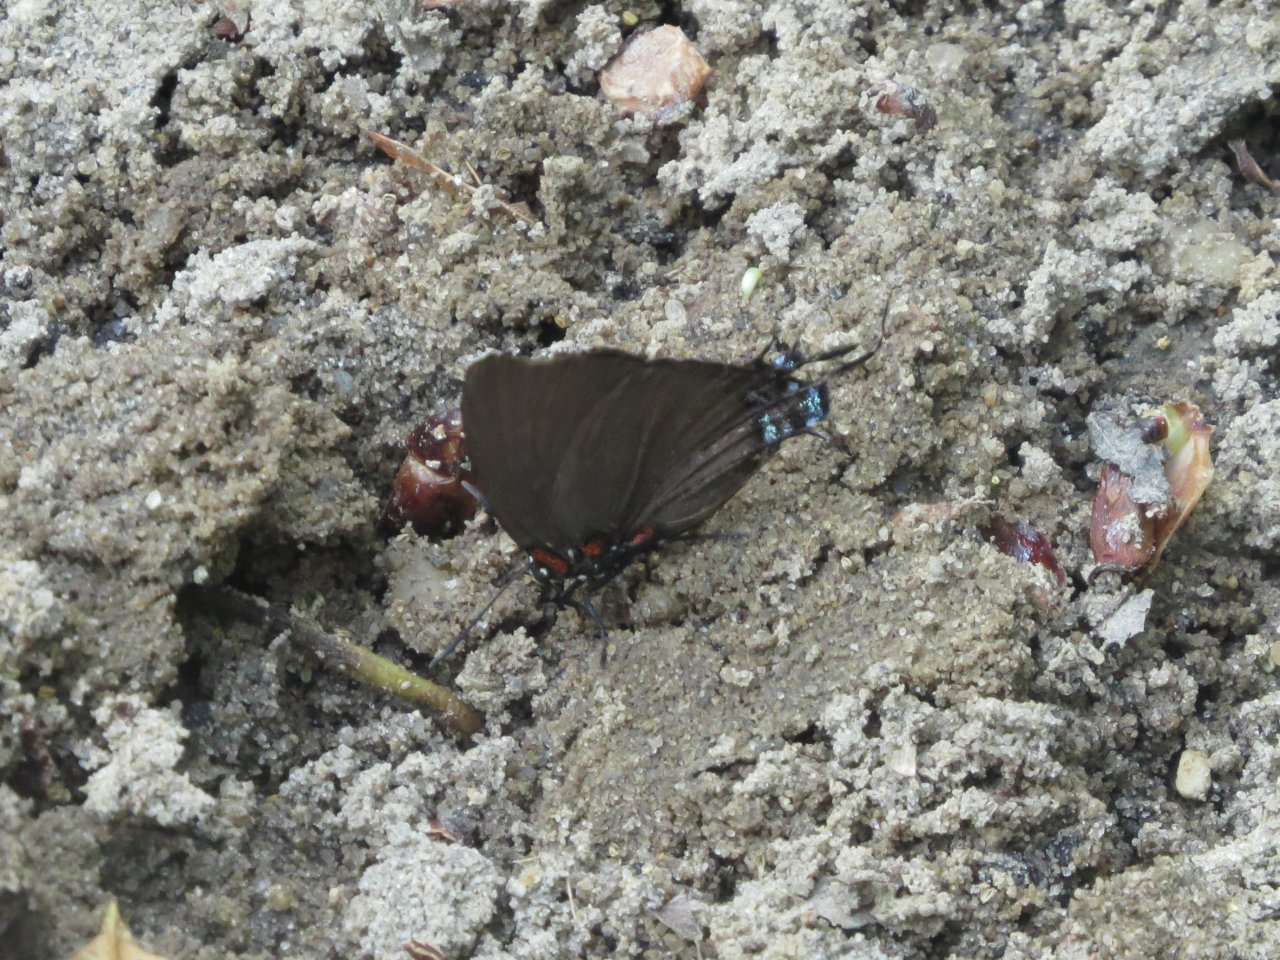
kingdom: Animalia
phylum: Arthropoda
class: Insecta
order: Lepidoptera
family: Lycaenidae
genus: Atlides
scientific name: Atlides halesus
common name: Great Purple Hairstreak
